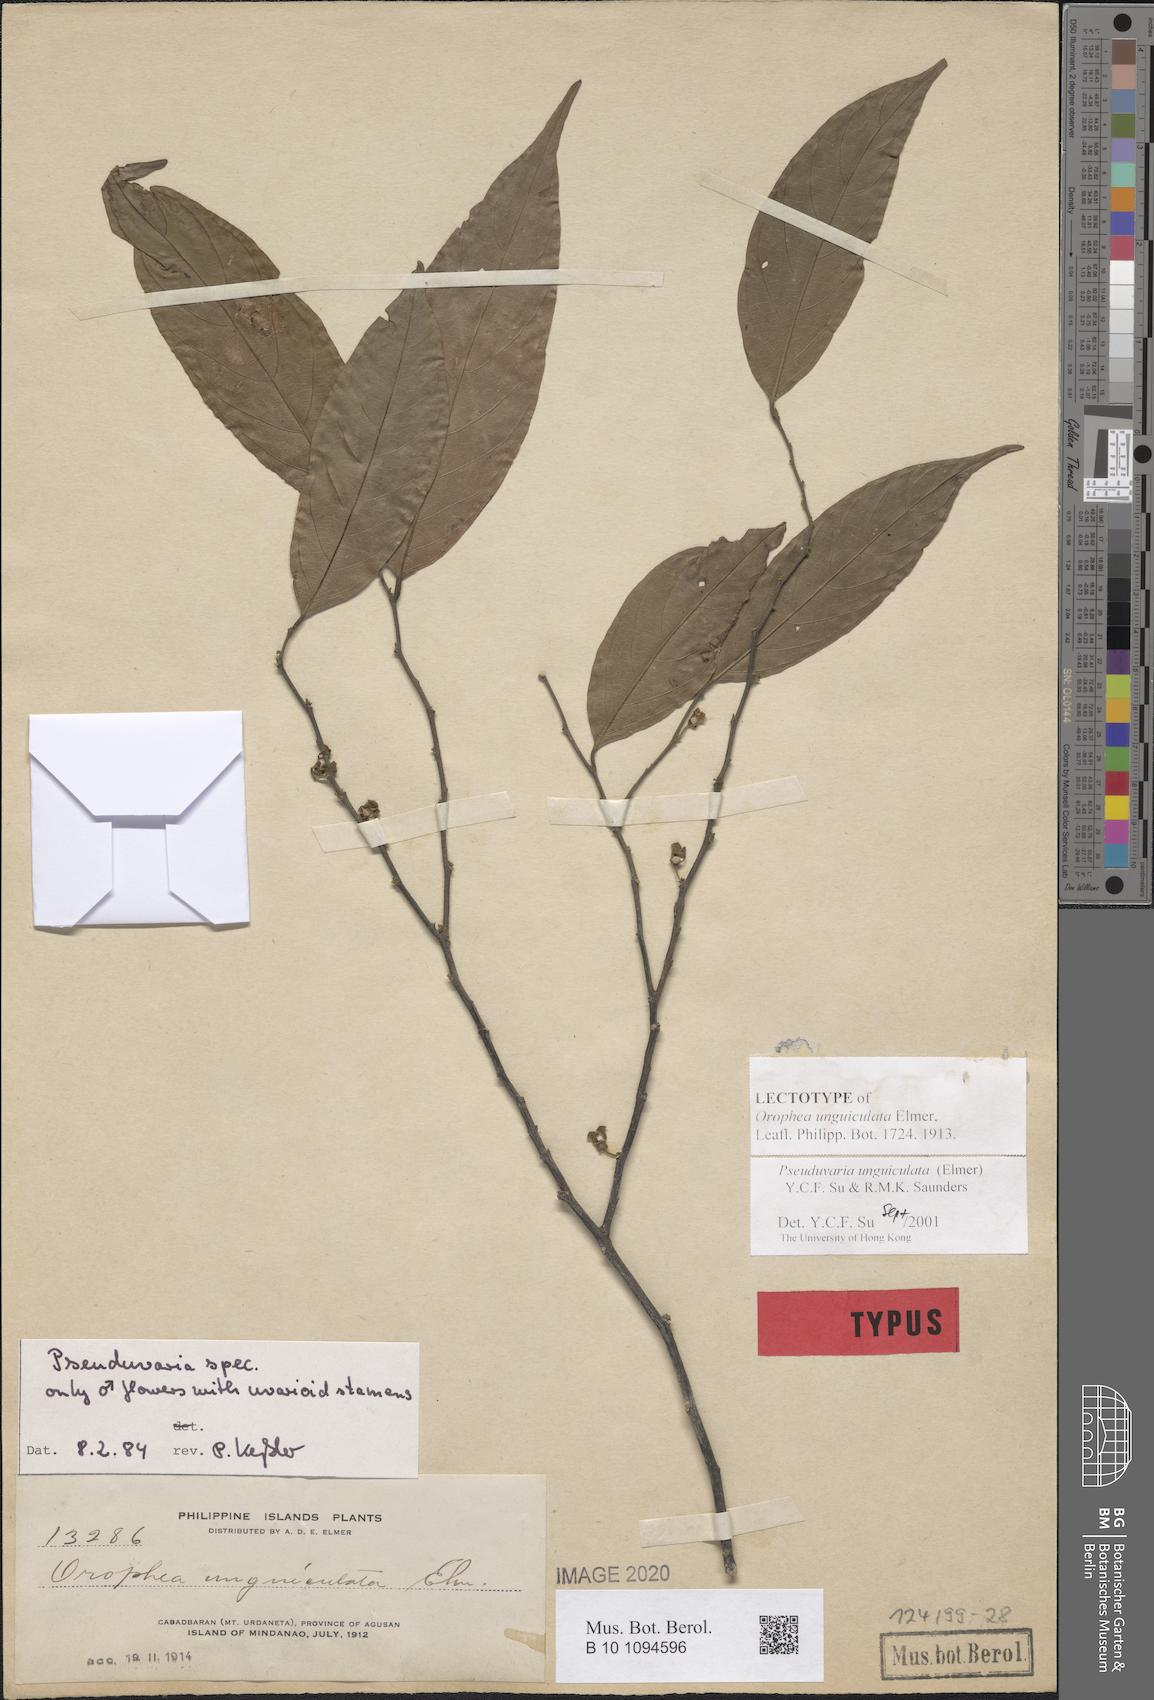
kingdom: Plantae
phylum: Tracheophyta
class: Magnoliopsida
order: Magnoliales
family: Annonaceae
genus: Pseuduvaria
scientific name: Pseuduvaria unguiculata
